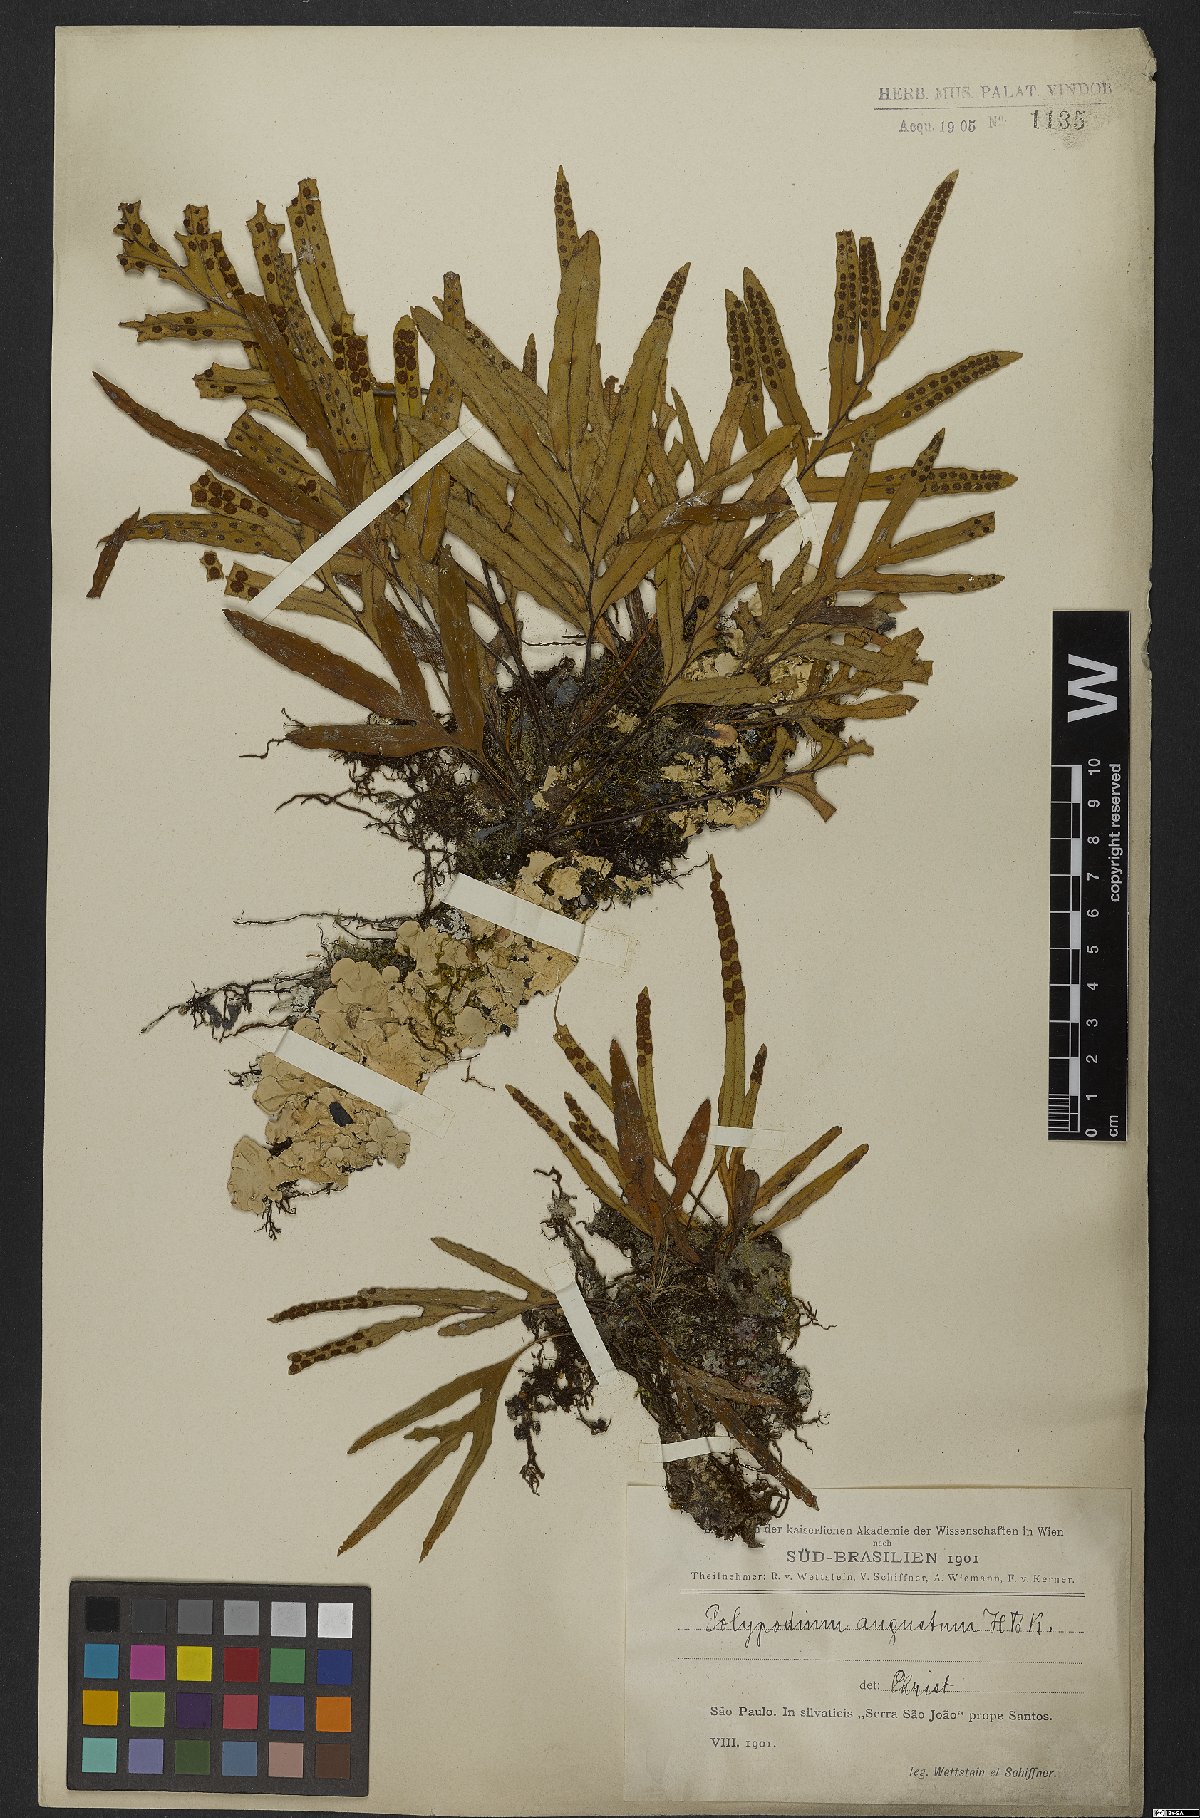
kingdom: Plantae
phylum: Tracheophyta
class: Polypodiopsida
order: Polypodiales
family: Polypodiaceae
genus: Pleopeltis
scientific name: Pleopeltis angusta
